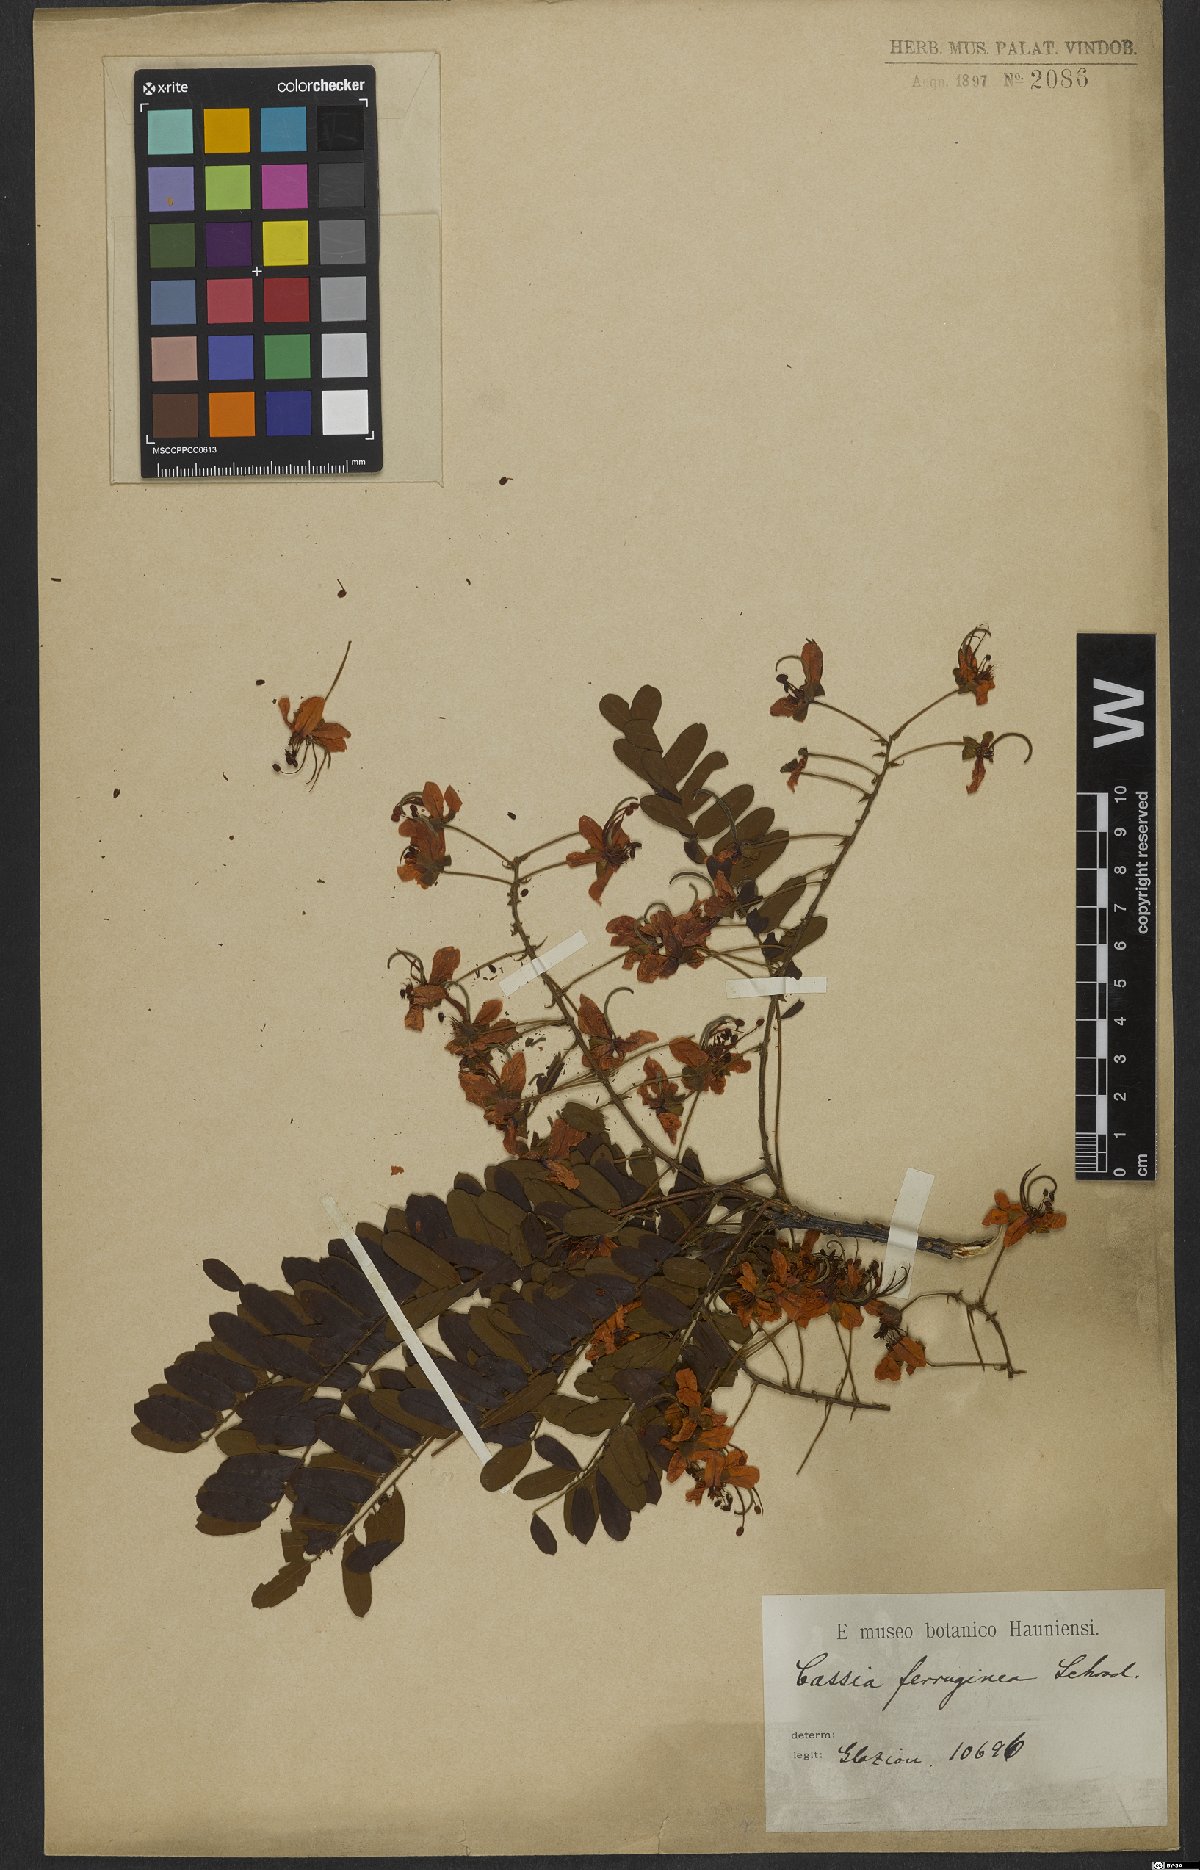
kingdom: Plantae
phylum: Tracheophyta
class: Magnoliopsida
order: Fabales
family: Fabaceae
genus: Cassia
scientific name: Cassia ferruginea
